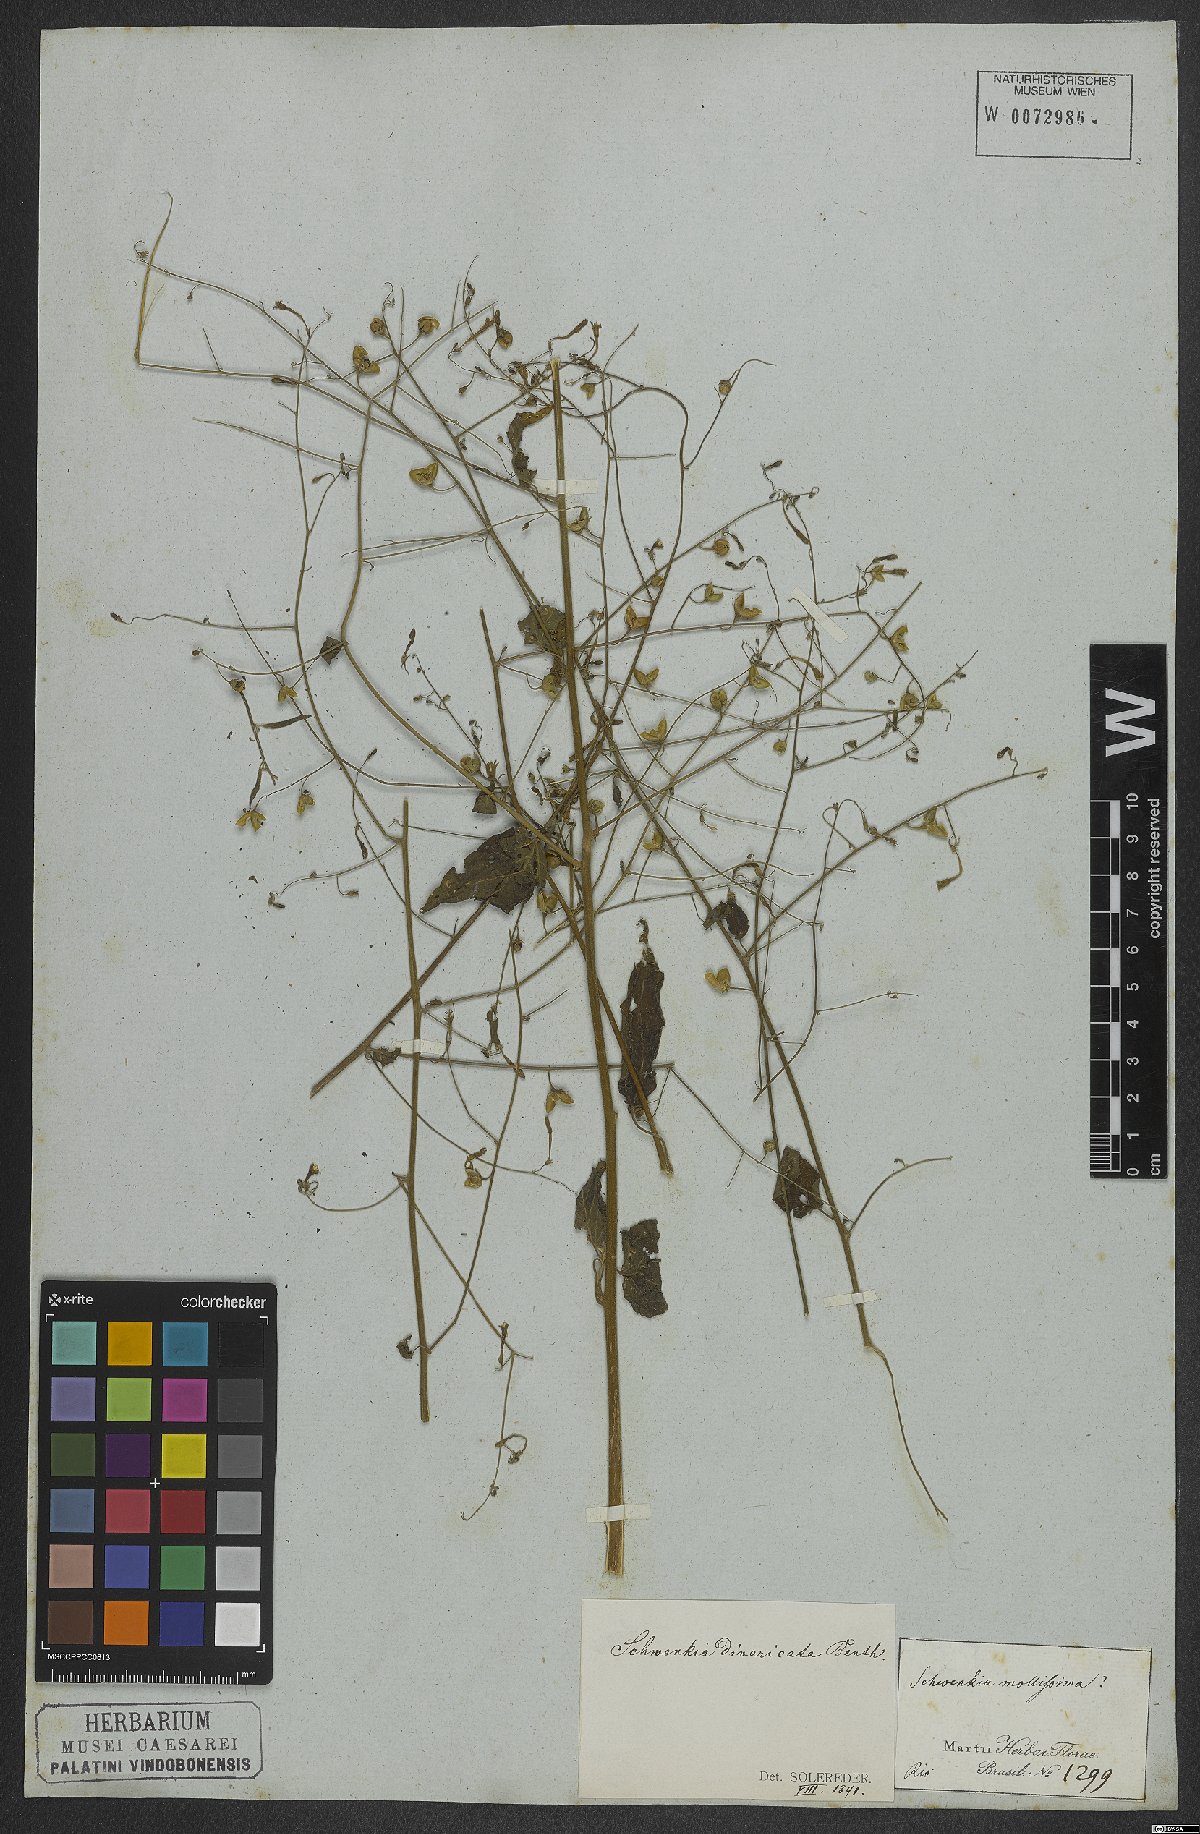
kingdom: Plantae
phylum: Tracheophyta
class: Magnoliopsida
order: Solanales
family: Solanaceae
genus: Schwenckia
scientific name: Schwenckia paniculata
